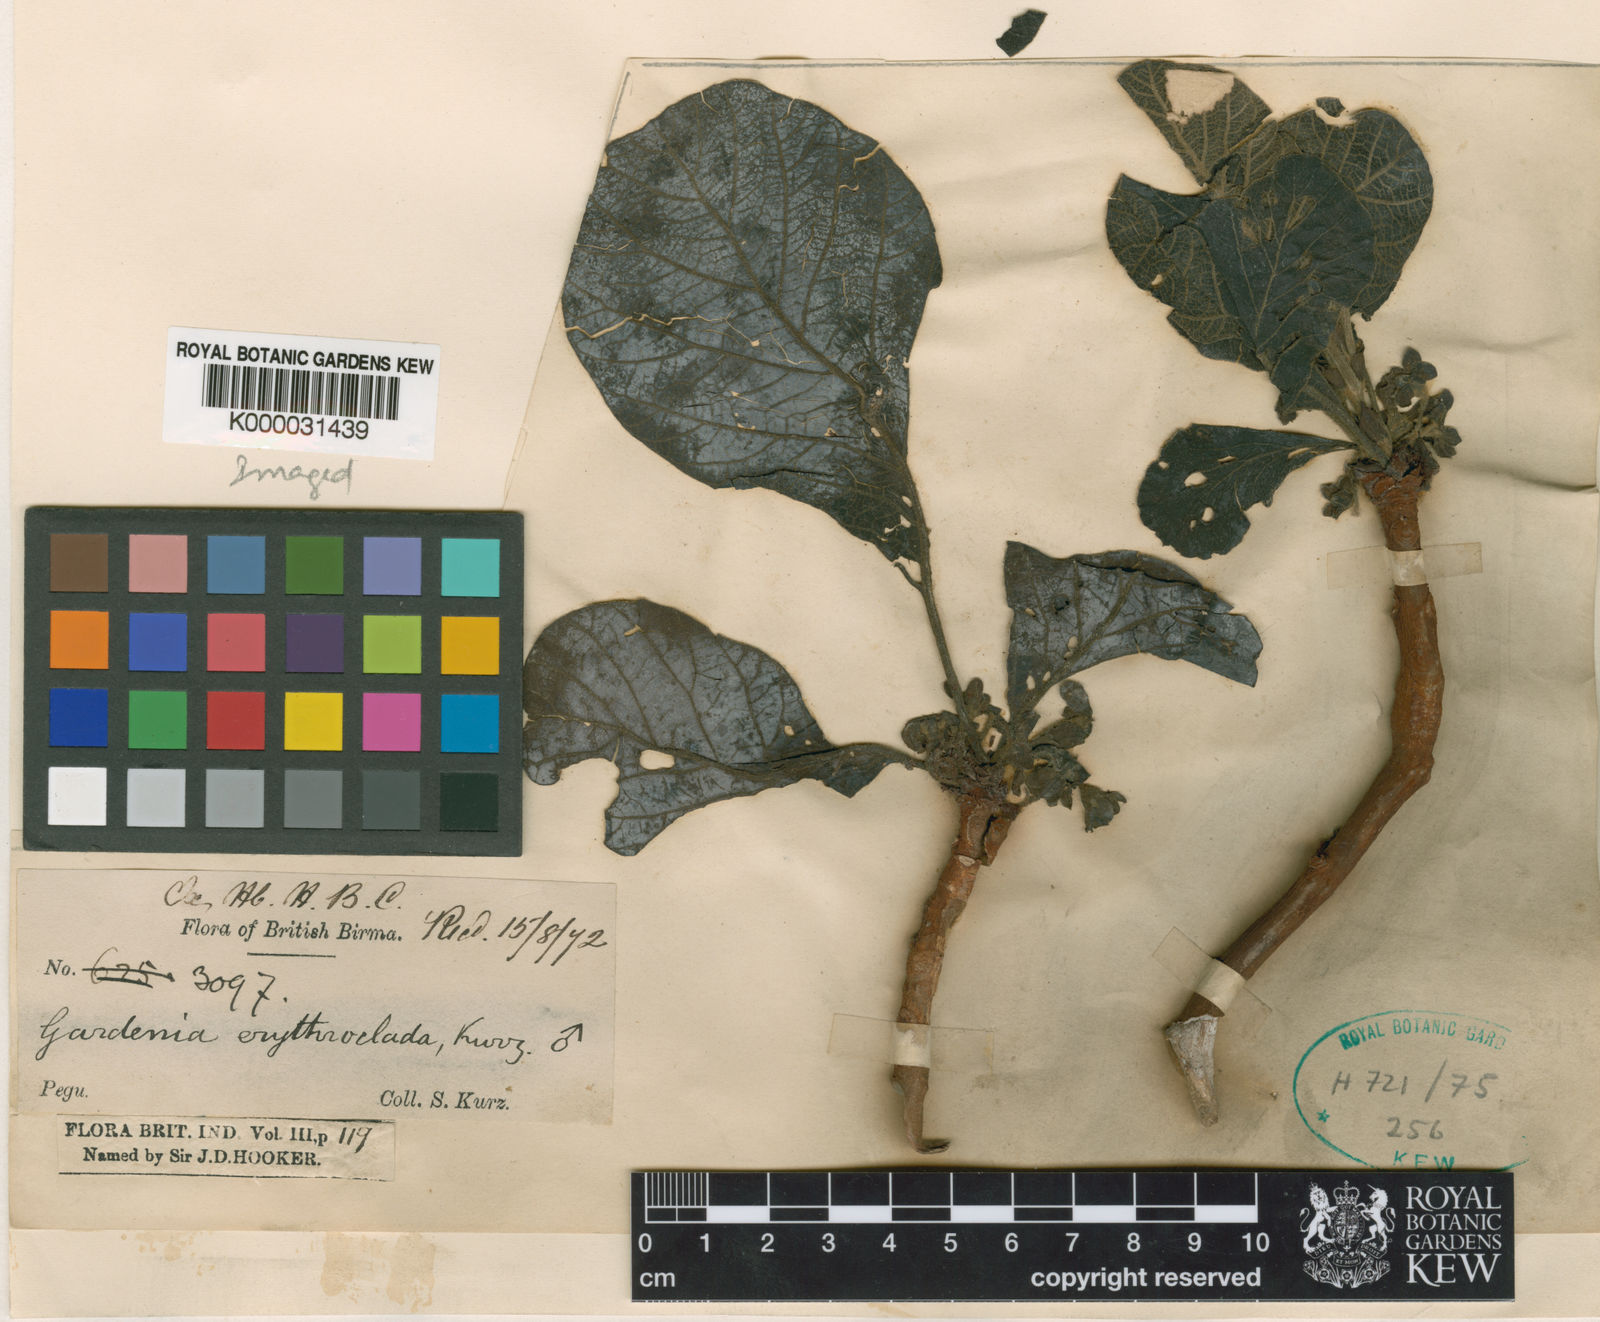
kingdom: Plantae
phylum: Tracheophyta
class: Magnoliopsida
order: Gentianales
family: Rubiaceae
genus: Dioecrescis
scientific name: Dioecrescis erythroclada
